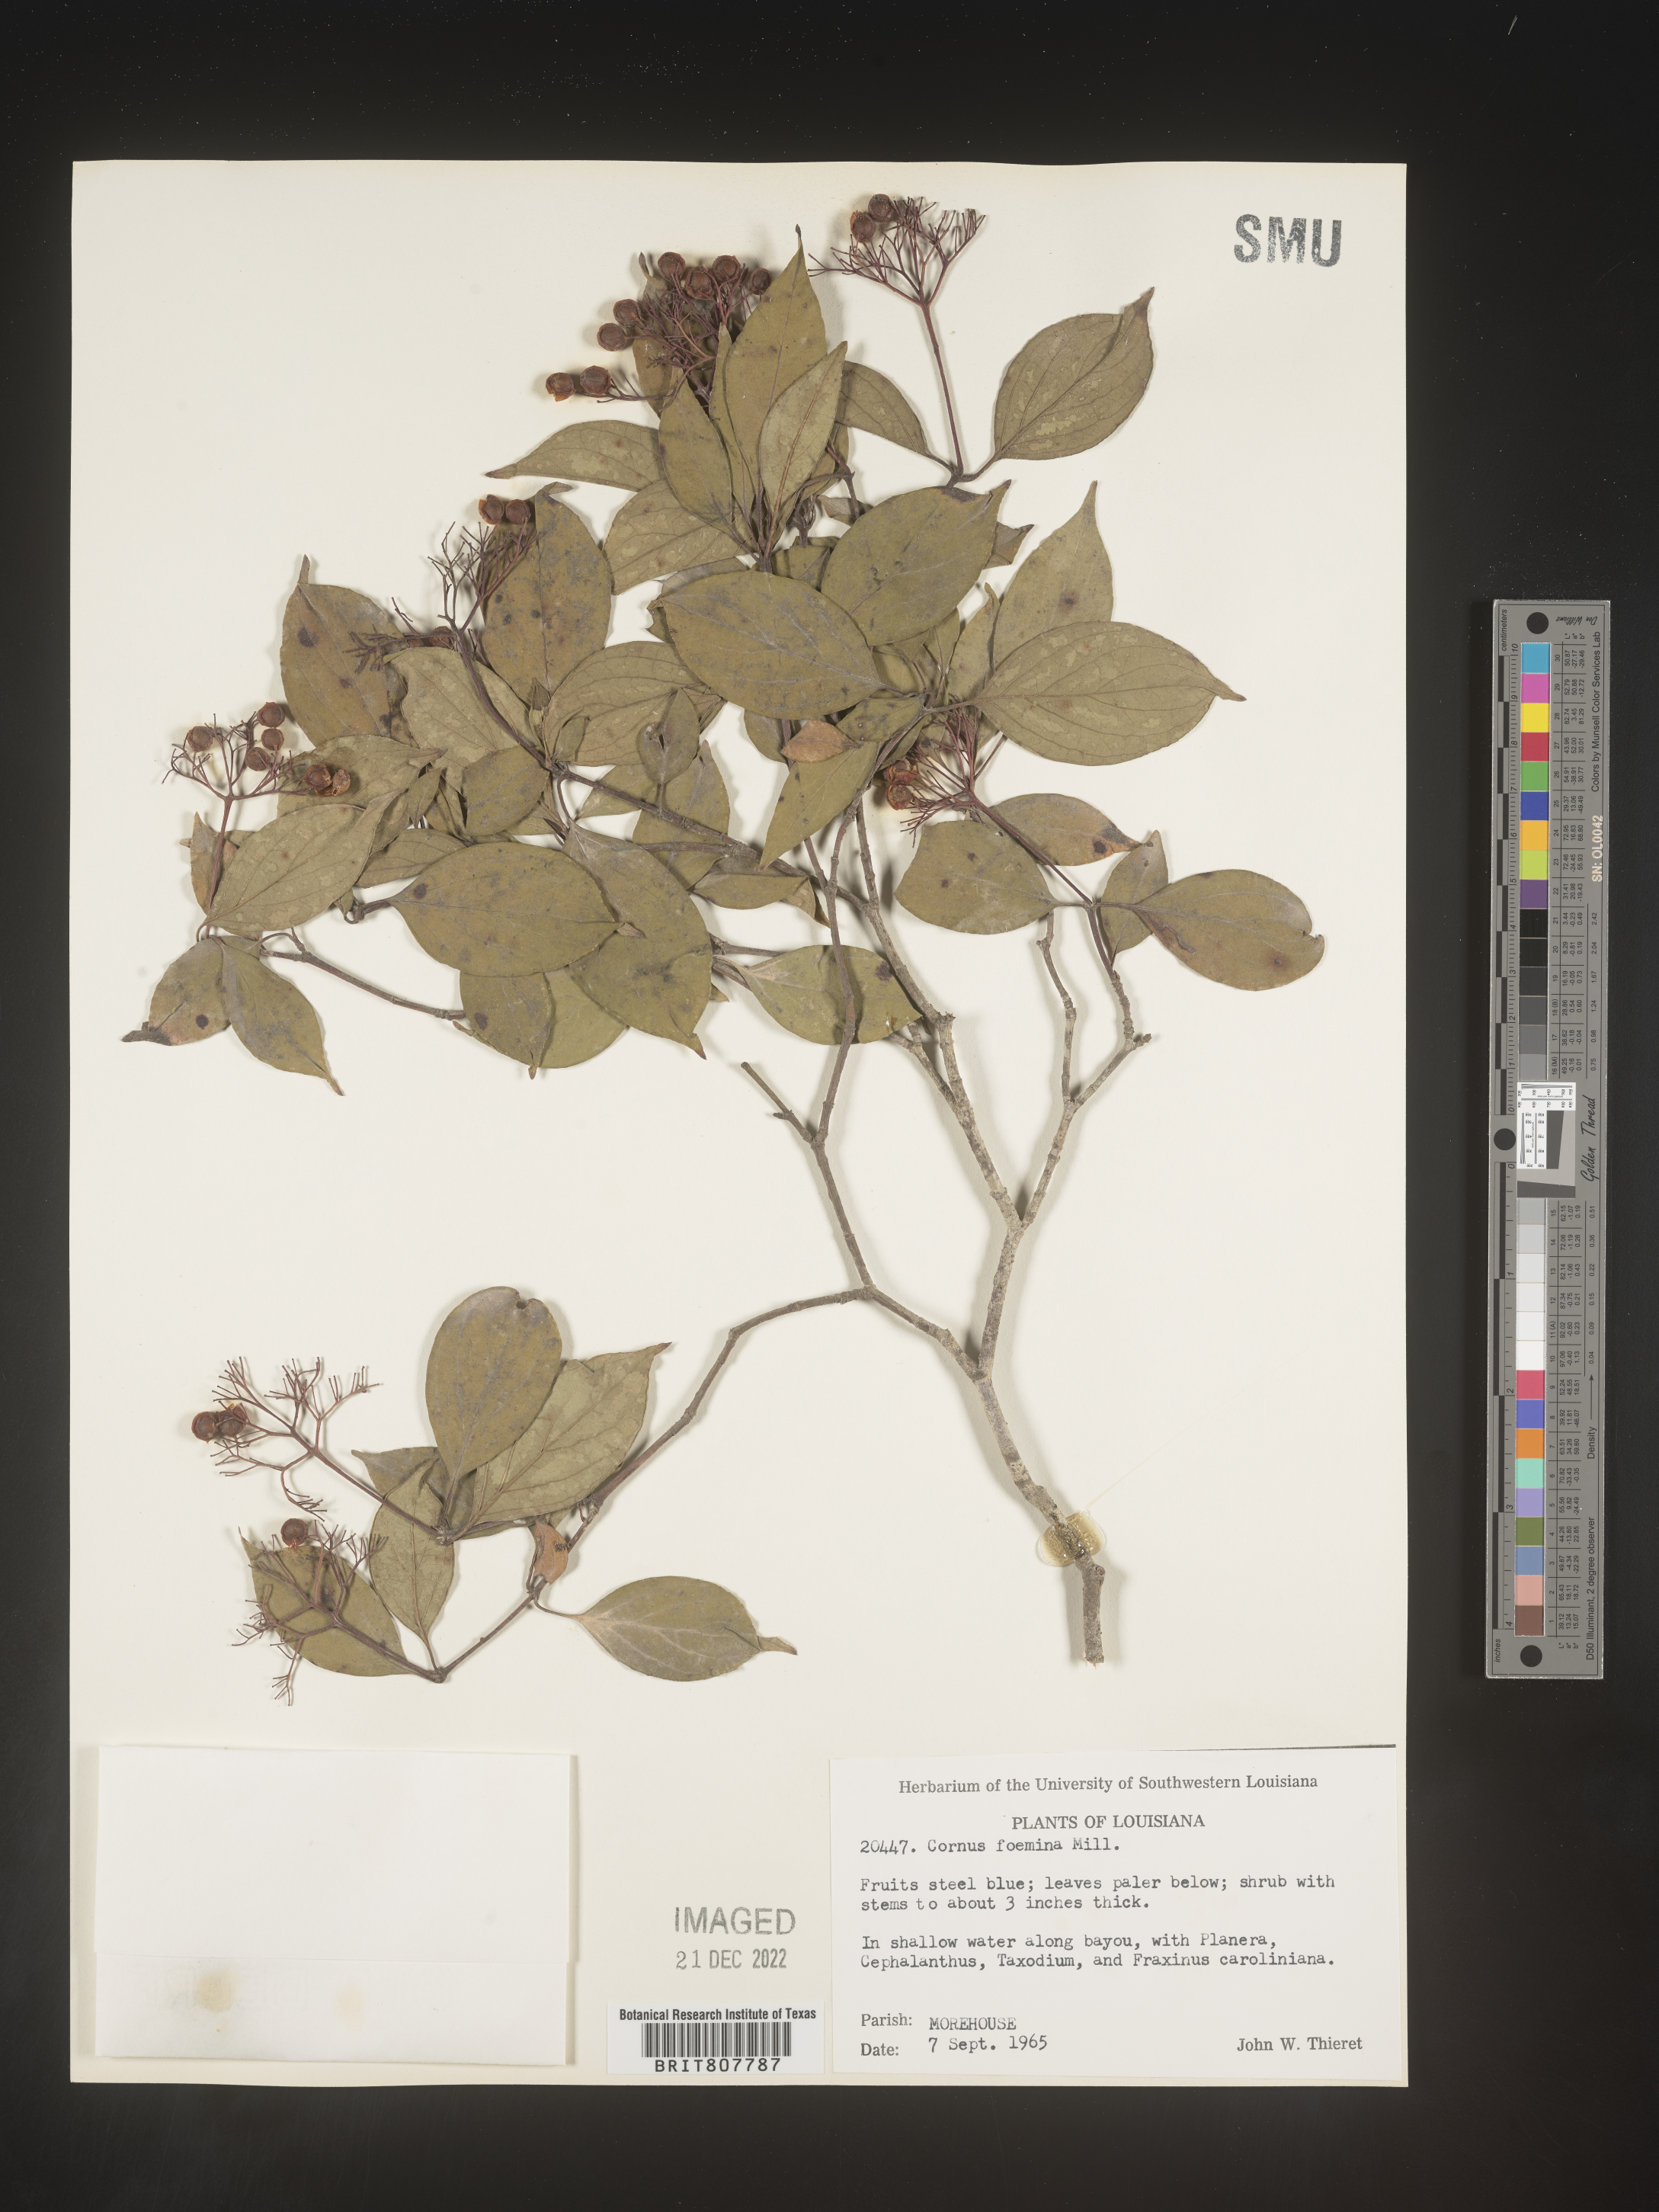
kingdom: Plantae
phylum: Tracheophyta
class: Magnoliopsida
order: Cornales
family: Cornaceae
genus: Cornus
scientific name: Cornus foemina
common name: Swamp dogwood
